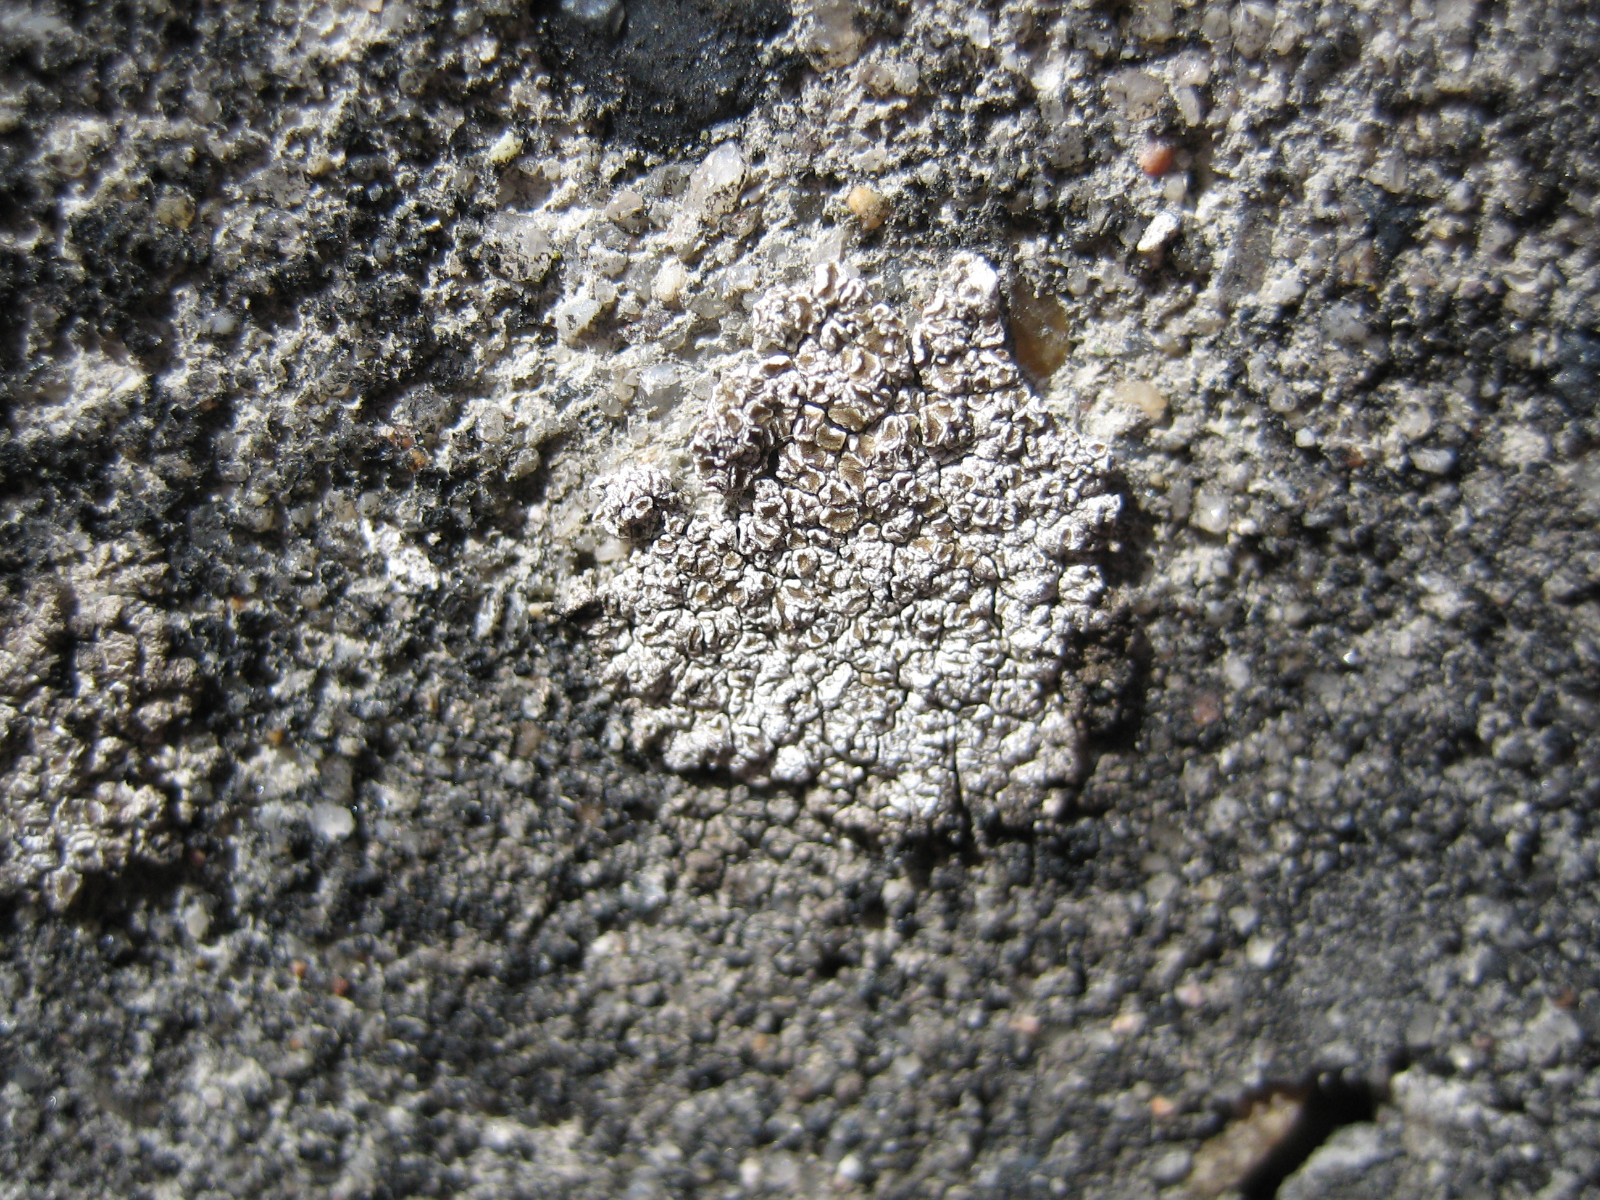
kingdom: Fungi
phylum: Ascomycota
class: Lecanoromycetes
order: Lecanorales
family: Lecanoraceae
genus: Polyozosia
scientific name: Polyozosia albescens
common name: cement-kantskivelav
